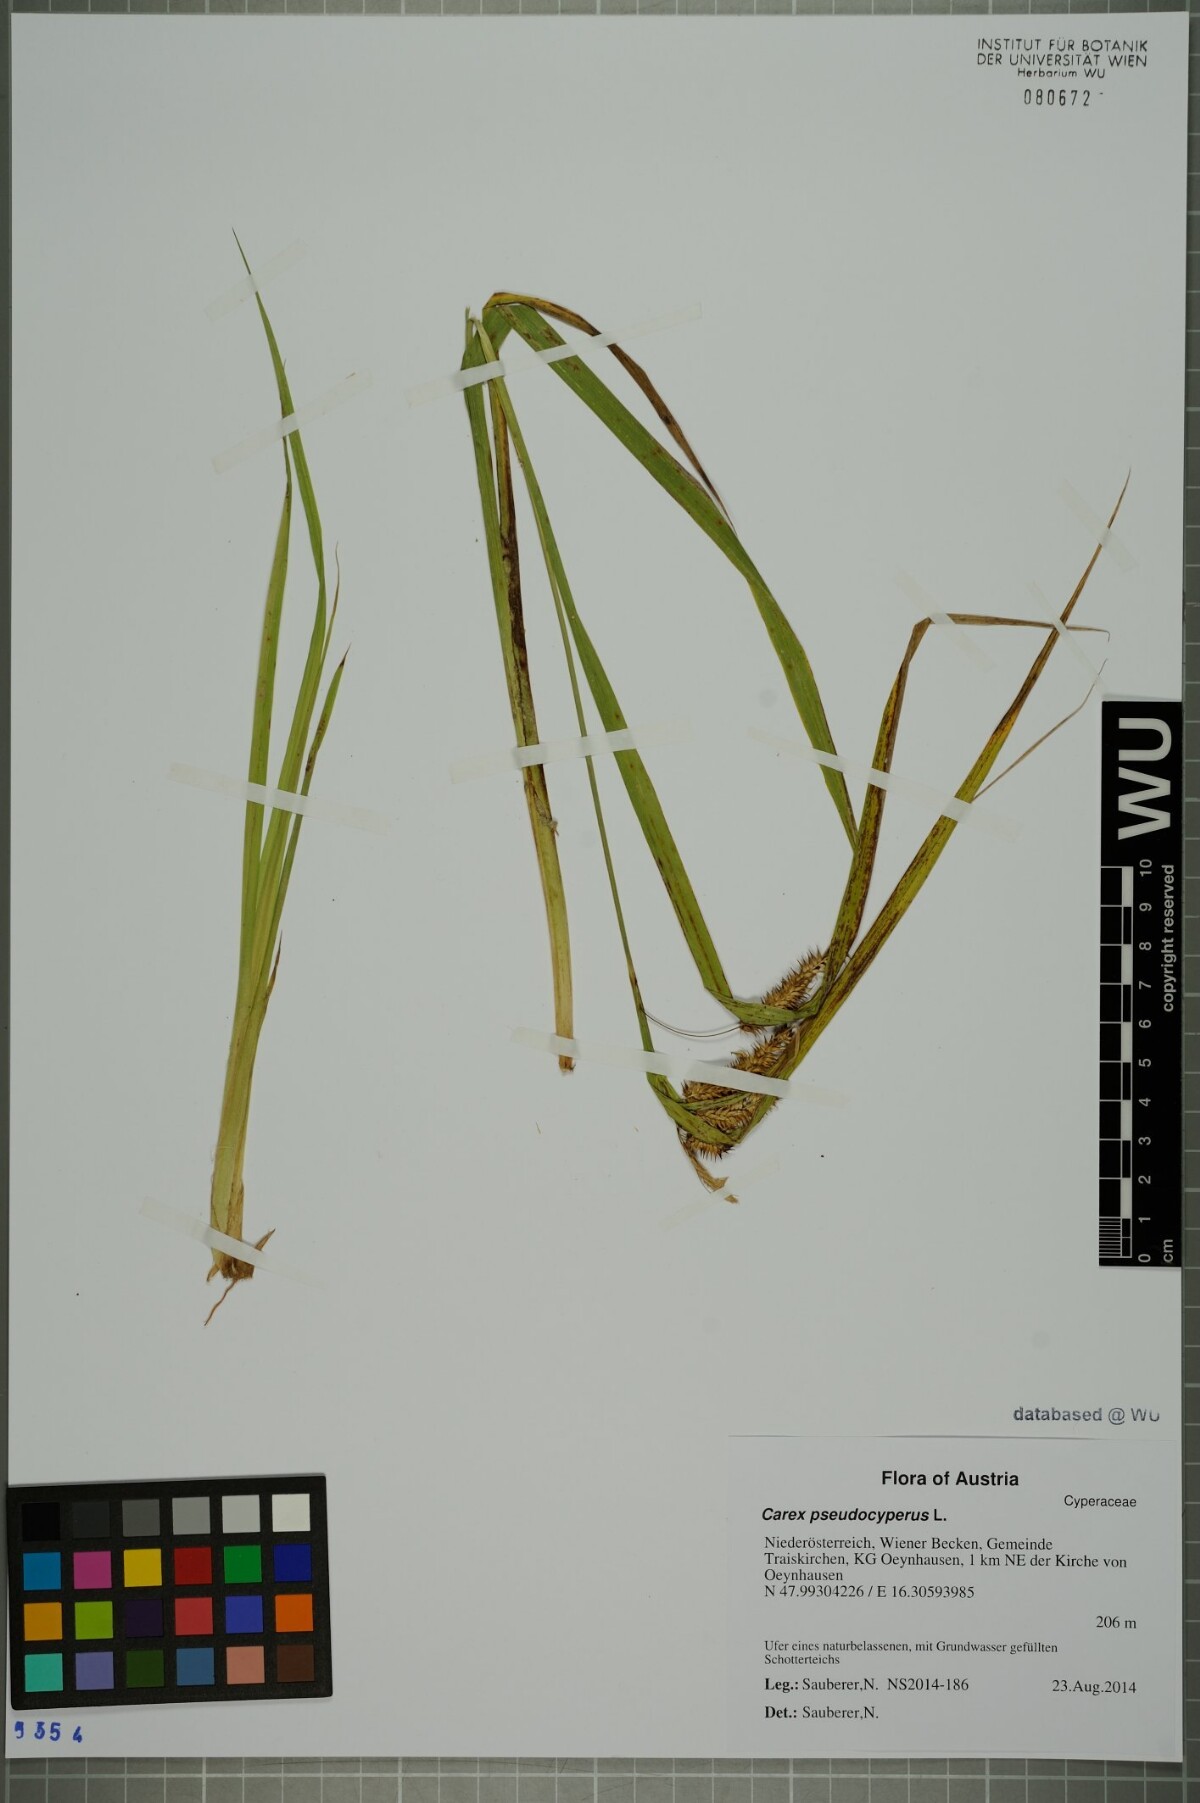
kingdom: Plantae
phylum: Tracheophyta
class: Liliopsida
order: Poales
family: Cyperaceae
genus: Carex
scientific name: Carex pseudocyperus
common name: Cyperus sedge
